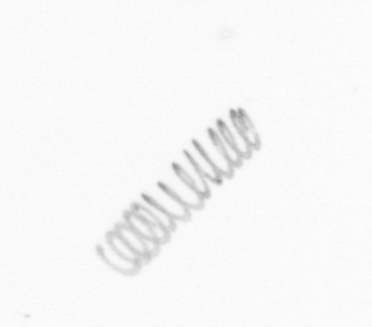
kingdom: Chromista
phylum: Ochrophyta
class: Bacillariophyceae
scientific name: Bacillariophyceae
